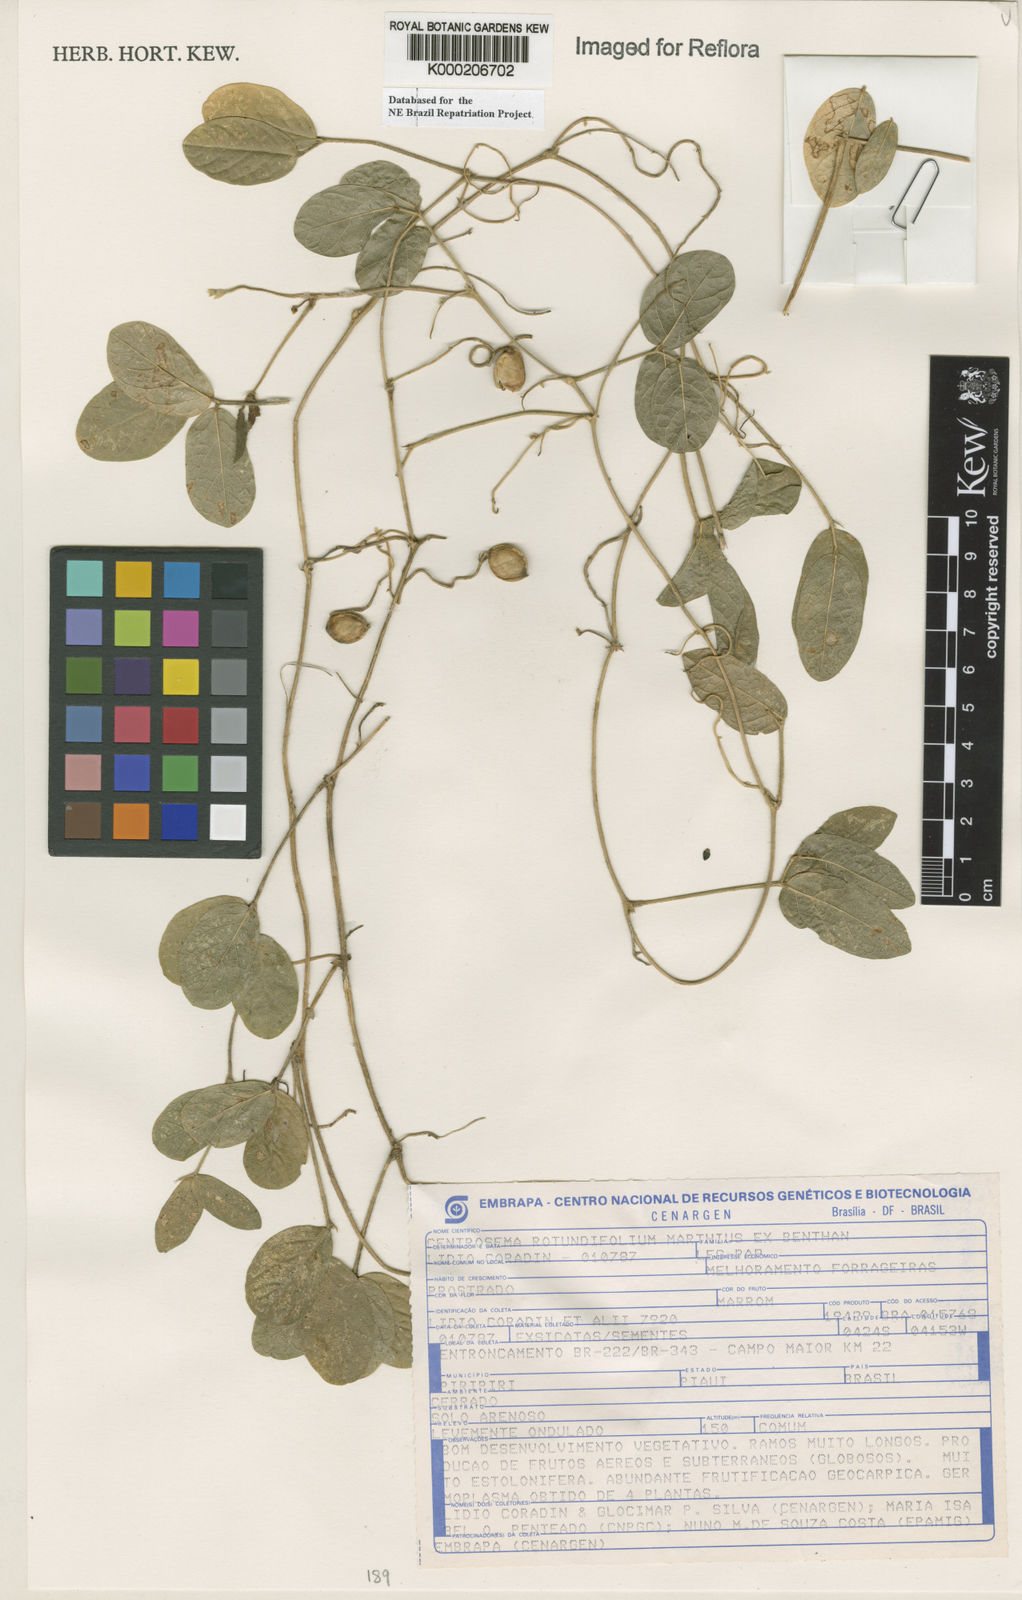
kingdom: Plantae
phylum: Tracheophyta
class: Magnoliopsida
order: Fabales
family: Fabaceae
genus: Centrosema
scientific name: Centrosema rotundifolium
